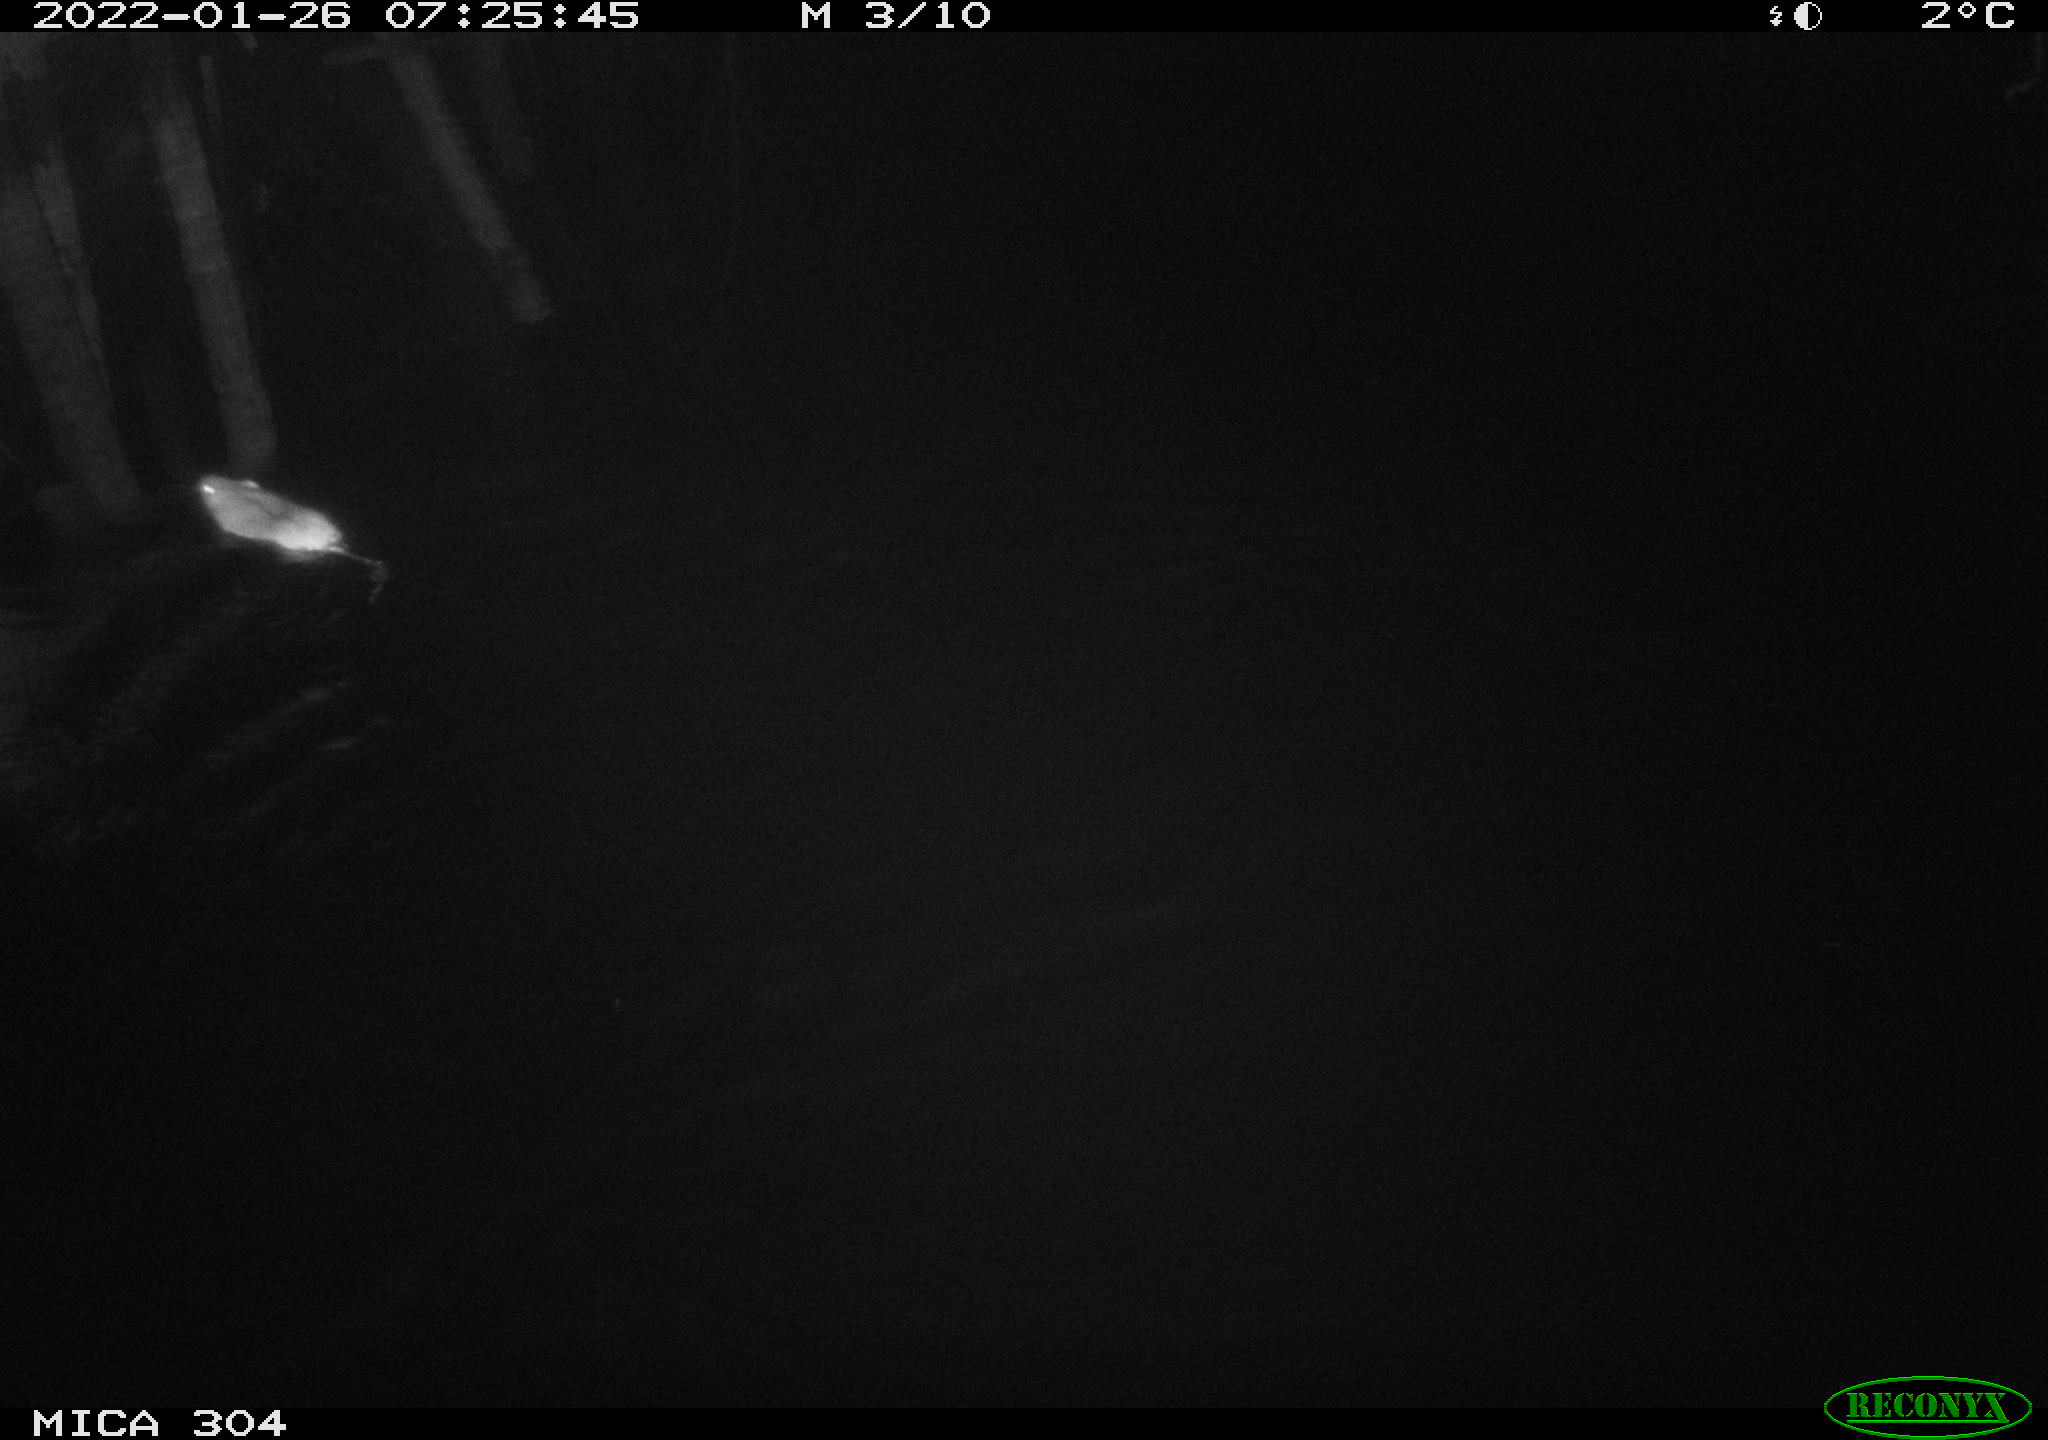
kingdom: Animalia
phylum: Chordata
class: Mammalia
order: Rodentia
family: Muridae
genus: Rattus
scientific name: Rattus norvegicus
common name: Brown rat
